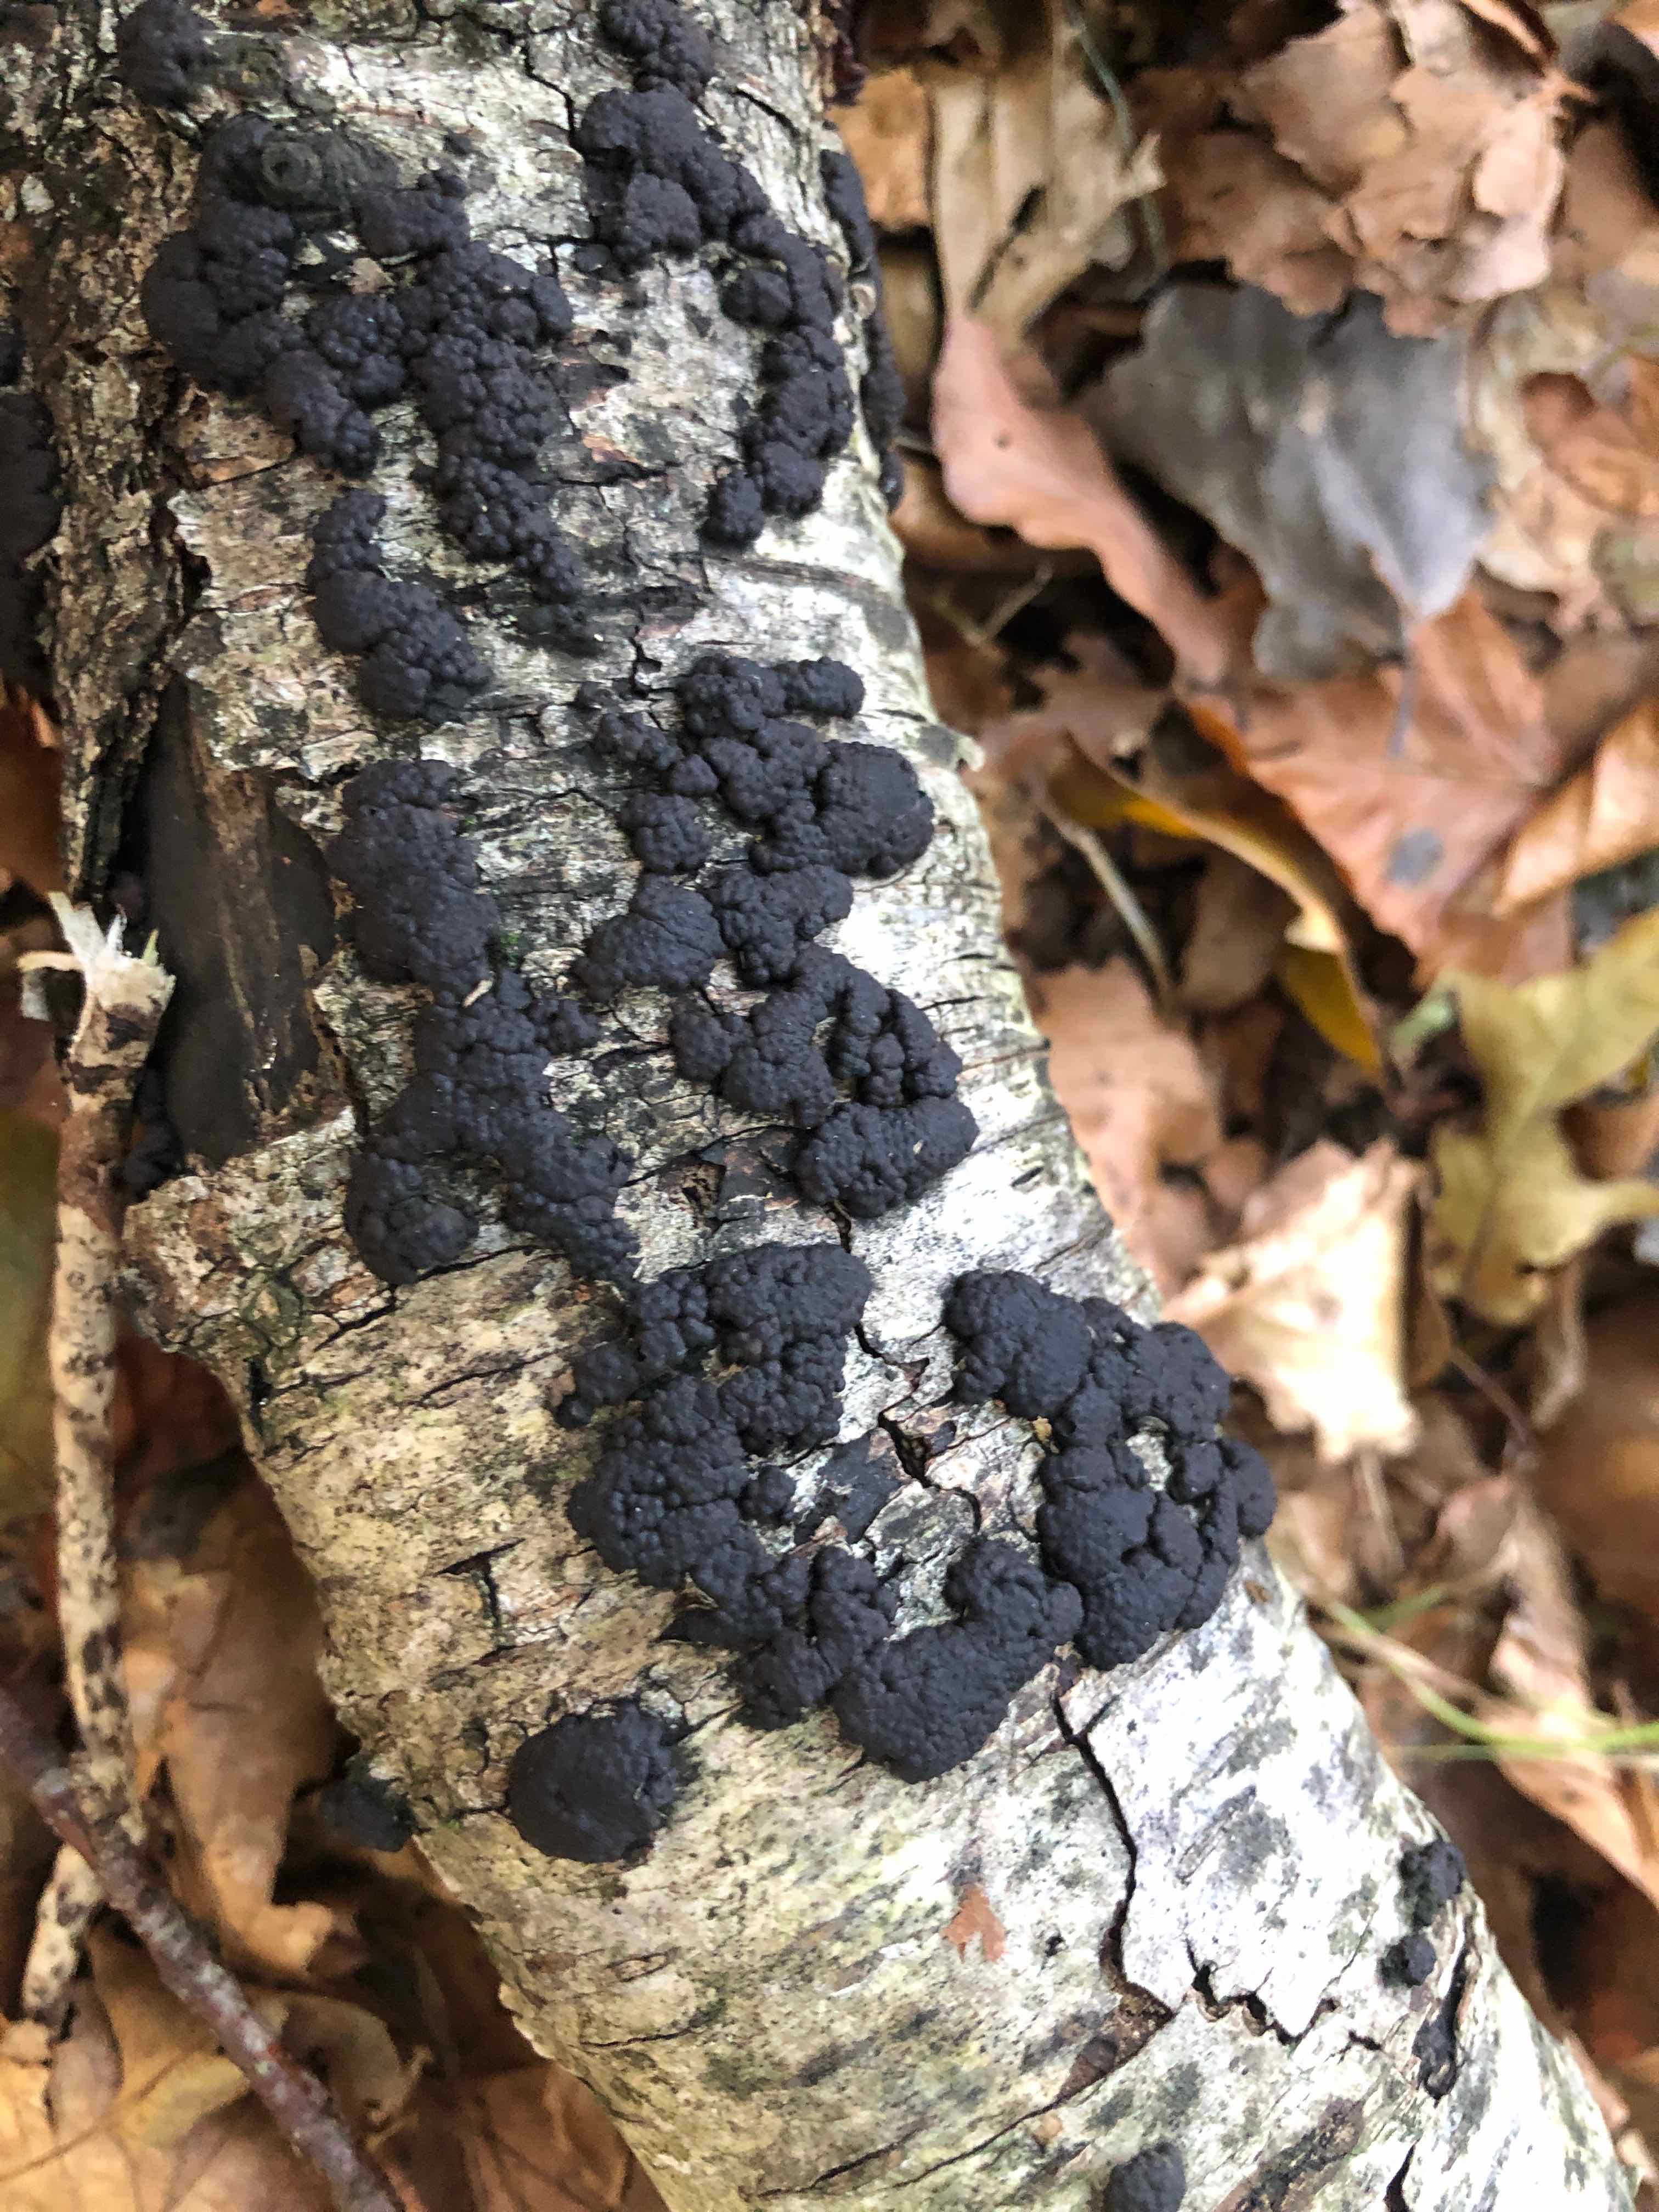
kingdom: Fungi
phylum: Ascomycota
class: Sordariomycetes
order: Xylariales
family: Hypoxylaceae
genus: Jackrogersella
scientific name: Jackrogersella multiformis
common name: foranderlig kulbær
